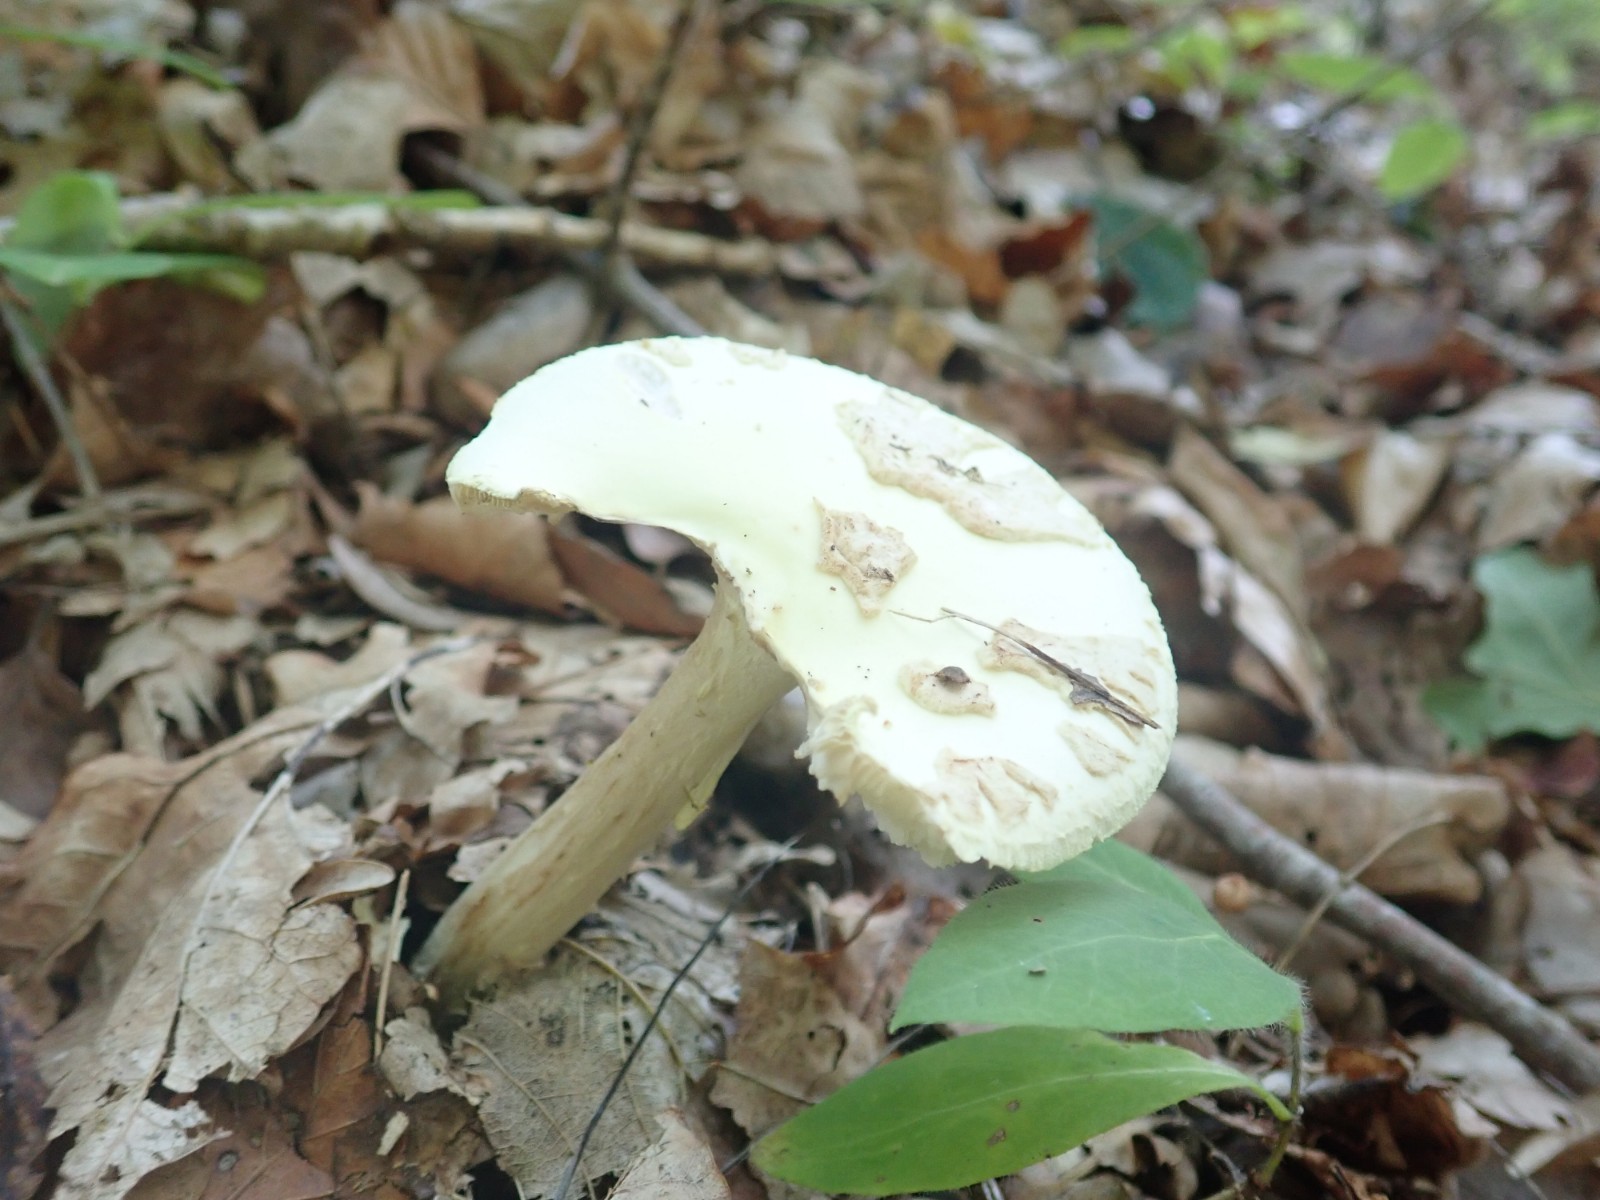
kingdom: Fungi
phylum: Basidiomycota
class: Agaricomycetes
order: Agaricales
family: Amanitaceae
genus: Amanita
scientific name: Amanita citrina
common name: kugleknoldet fluesvamp
